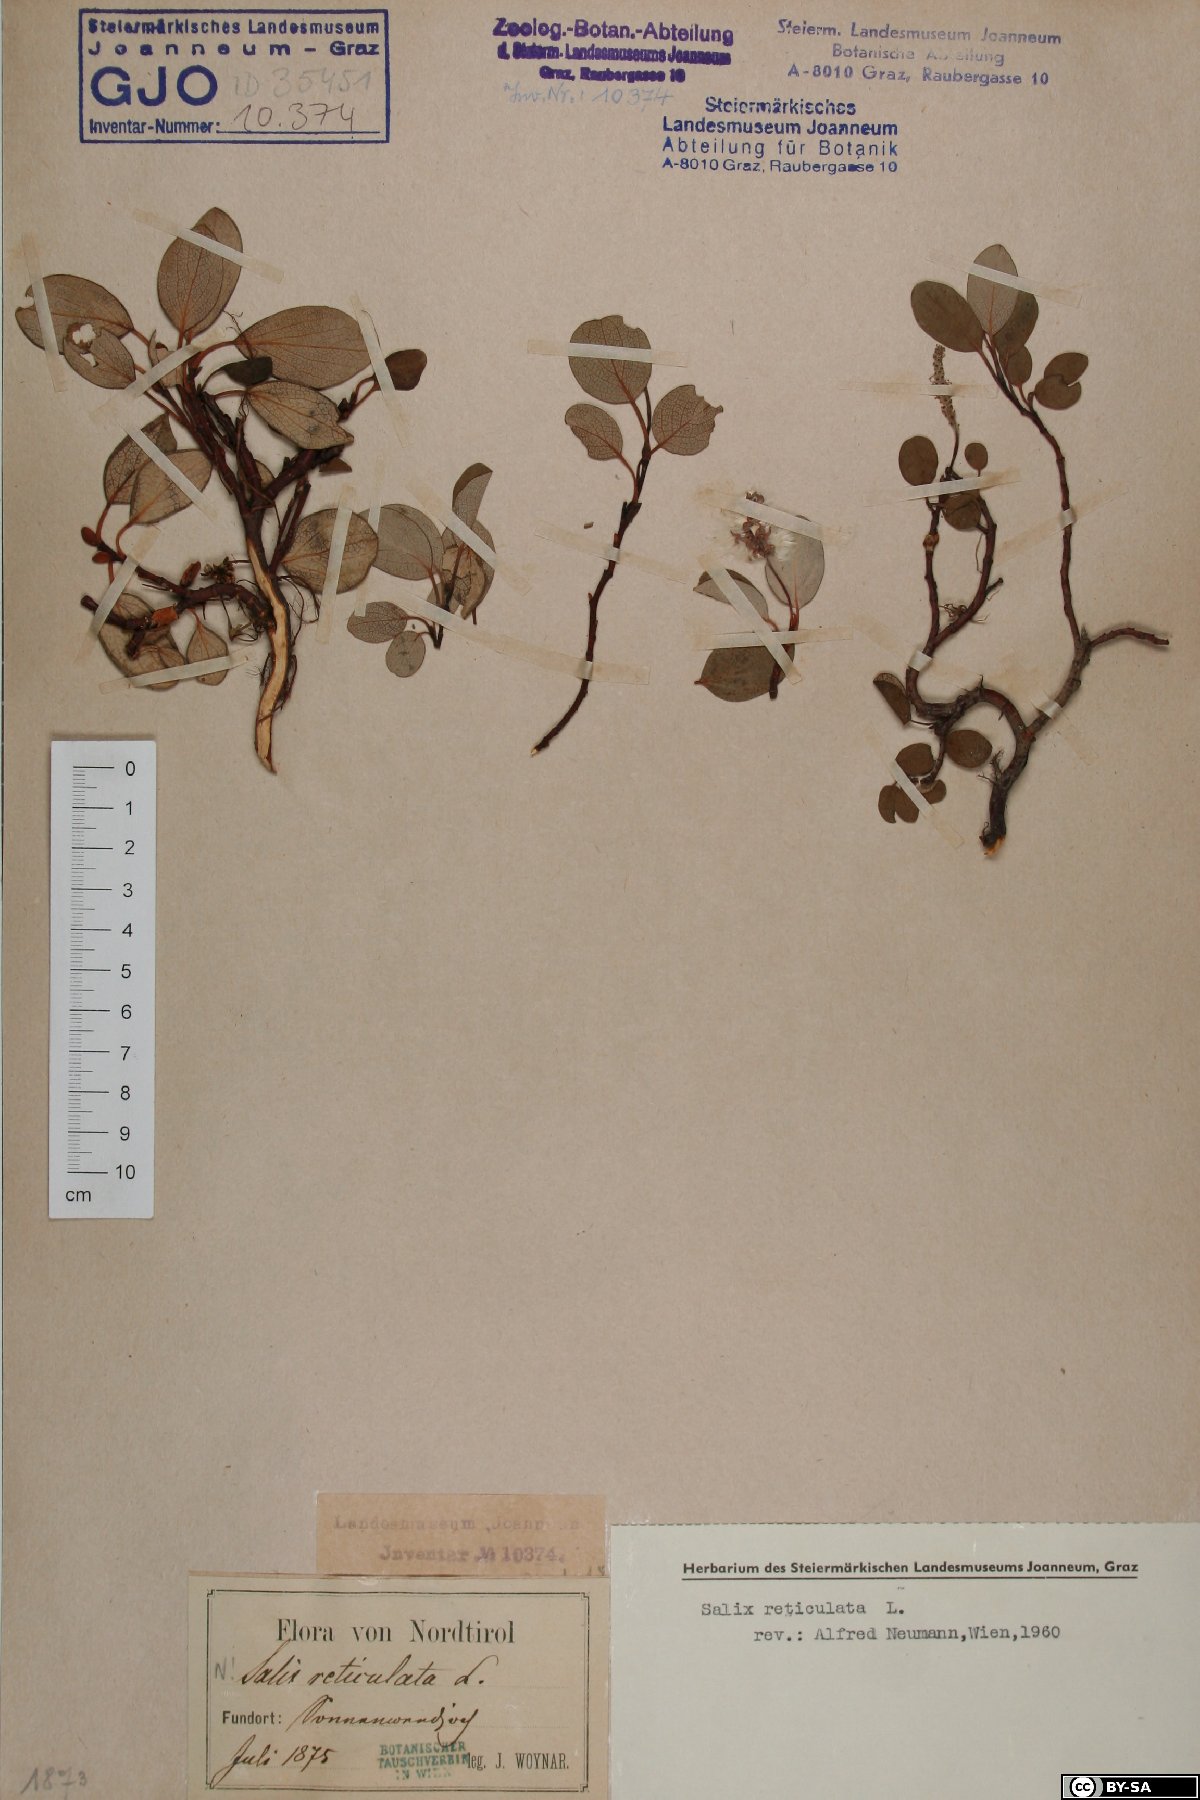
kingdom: Plantae
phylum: Tracheophyta
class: Magnoliopsida
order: Malpighiales
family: Salicaceae
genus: Salix
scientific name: Salix reticulata
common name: Net-leaved willow
